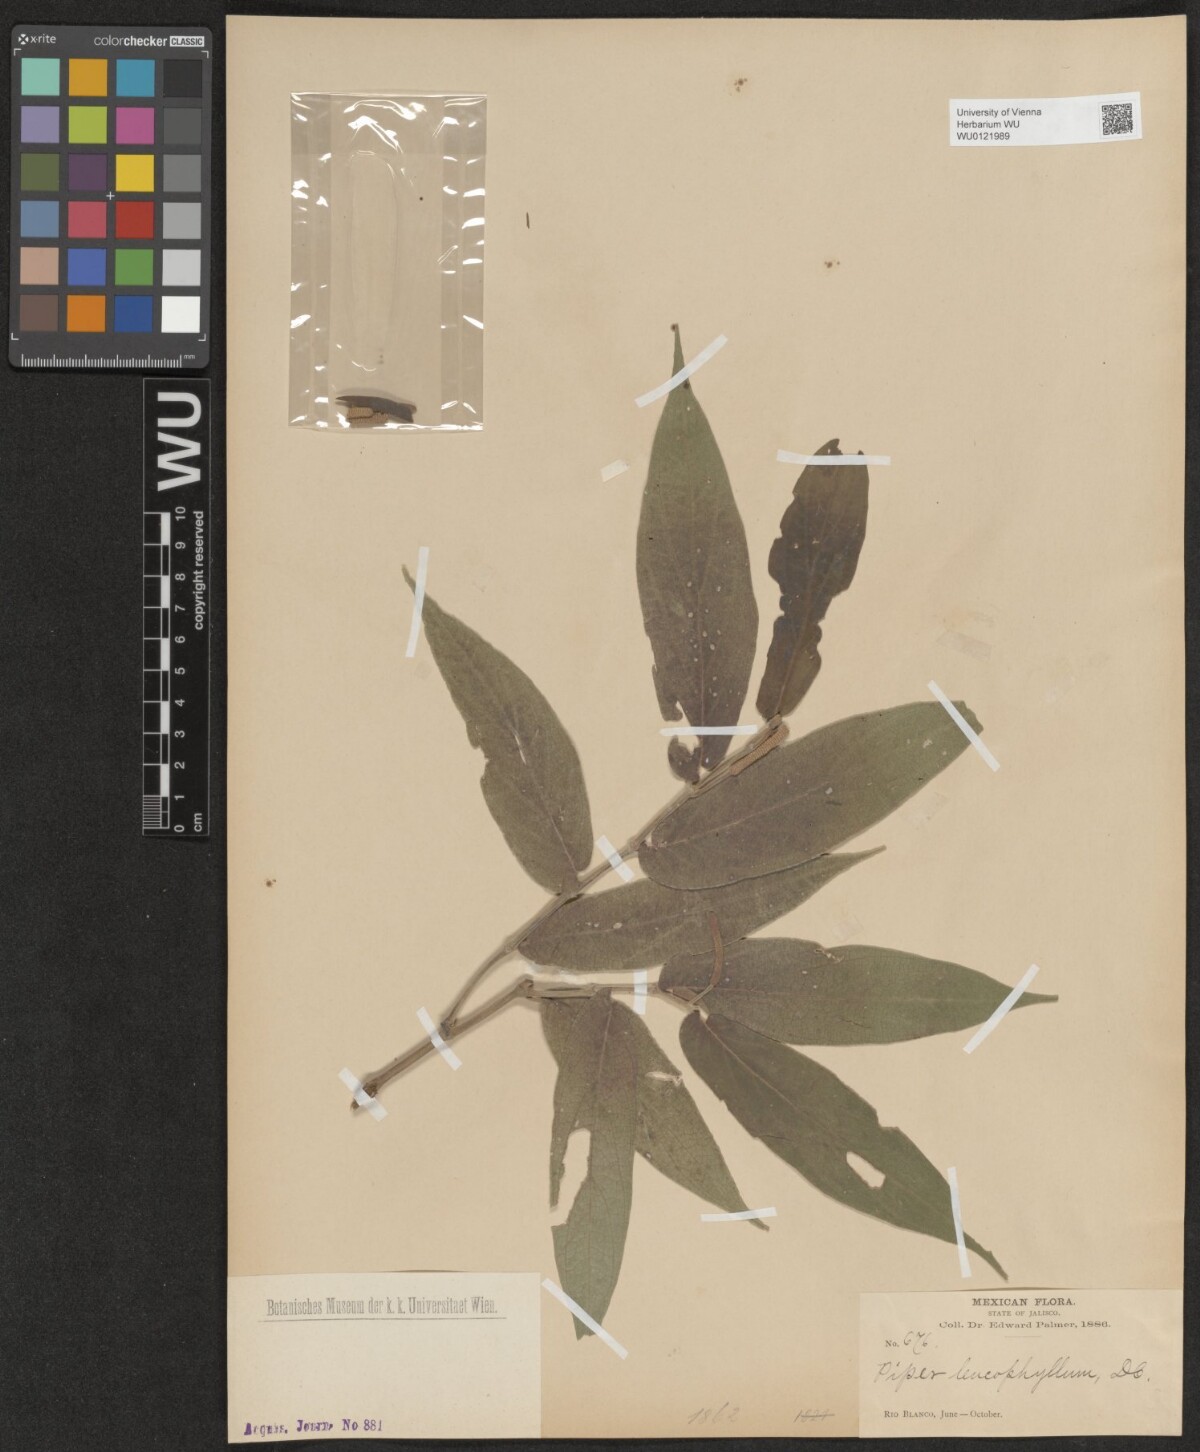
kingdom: Plantae
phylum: Tracheophyta
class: Magnoliopsida
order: Piperales
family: Piperaceae
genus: Piper
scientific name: Piper leucophyllum
